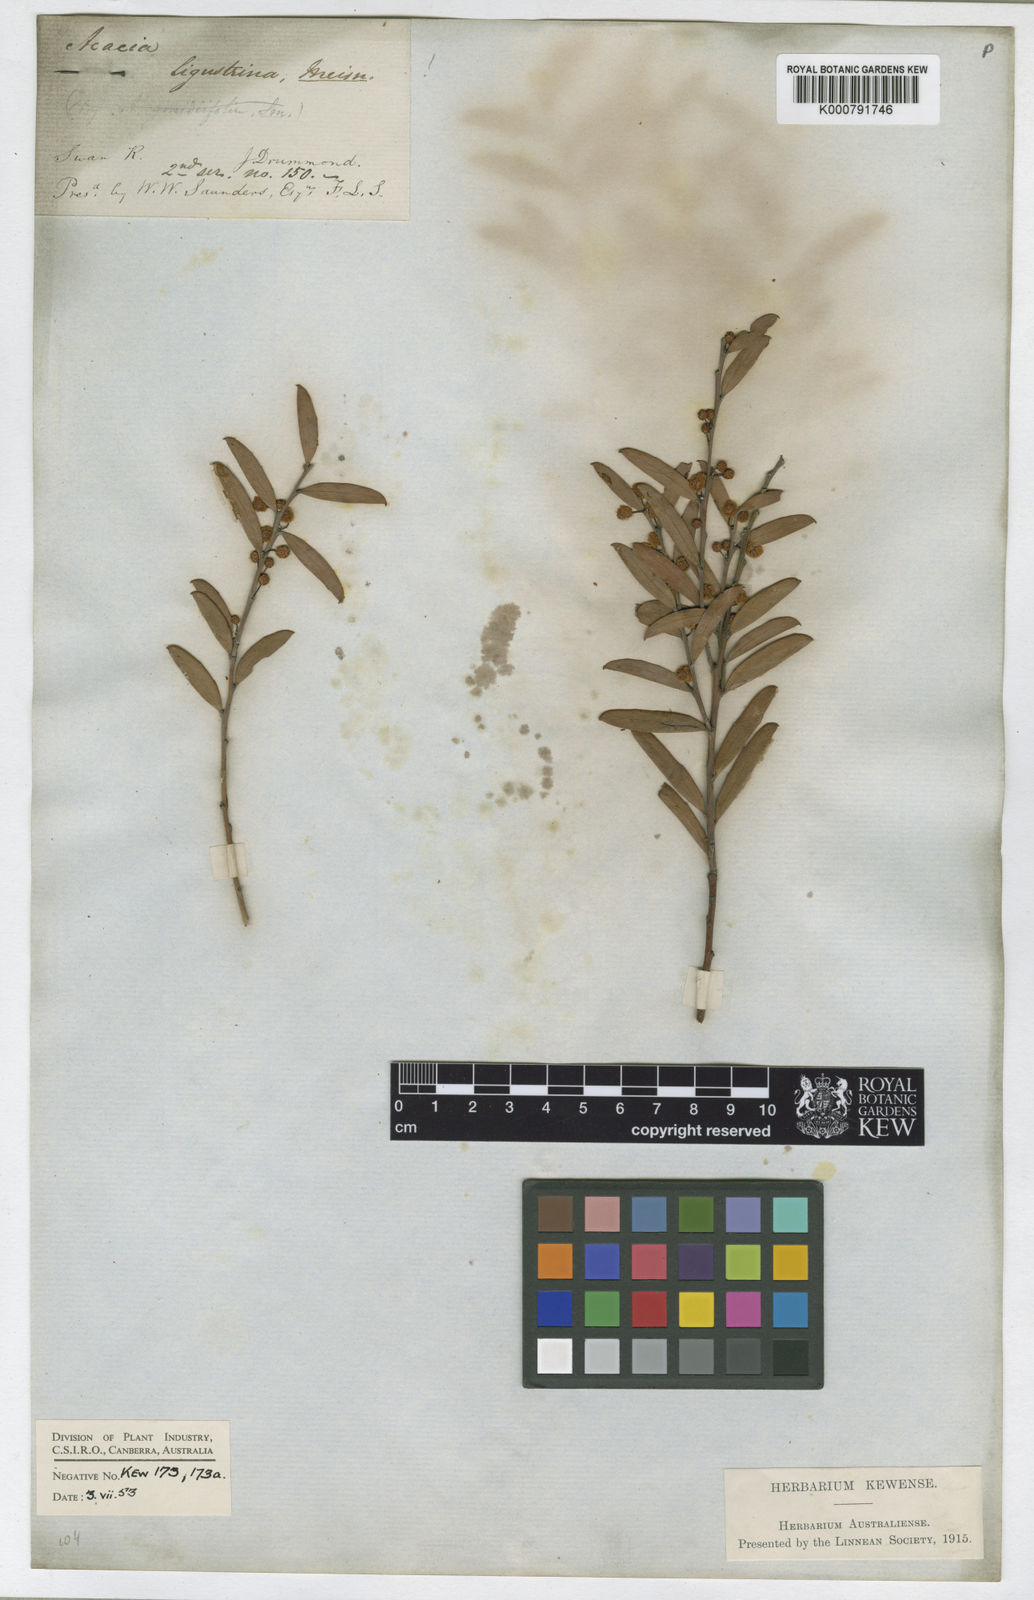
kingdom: Plantae
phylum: Tracheophyta
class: Magnoliopsida
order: Fabales
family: Fabaceae
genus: Acacia
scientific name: Acacia ligustrina
